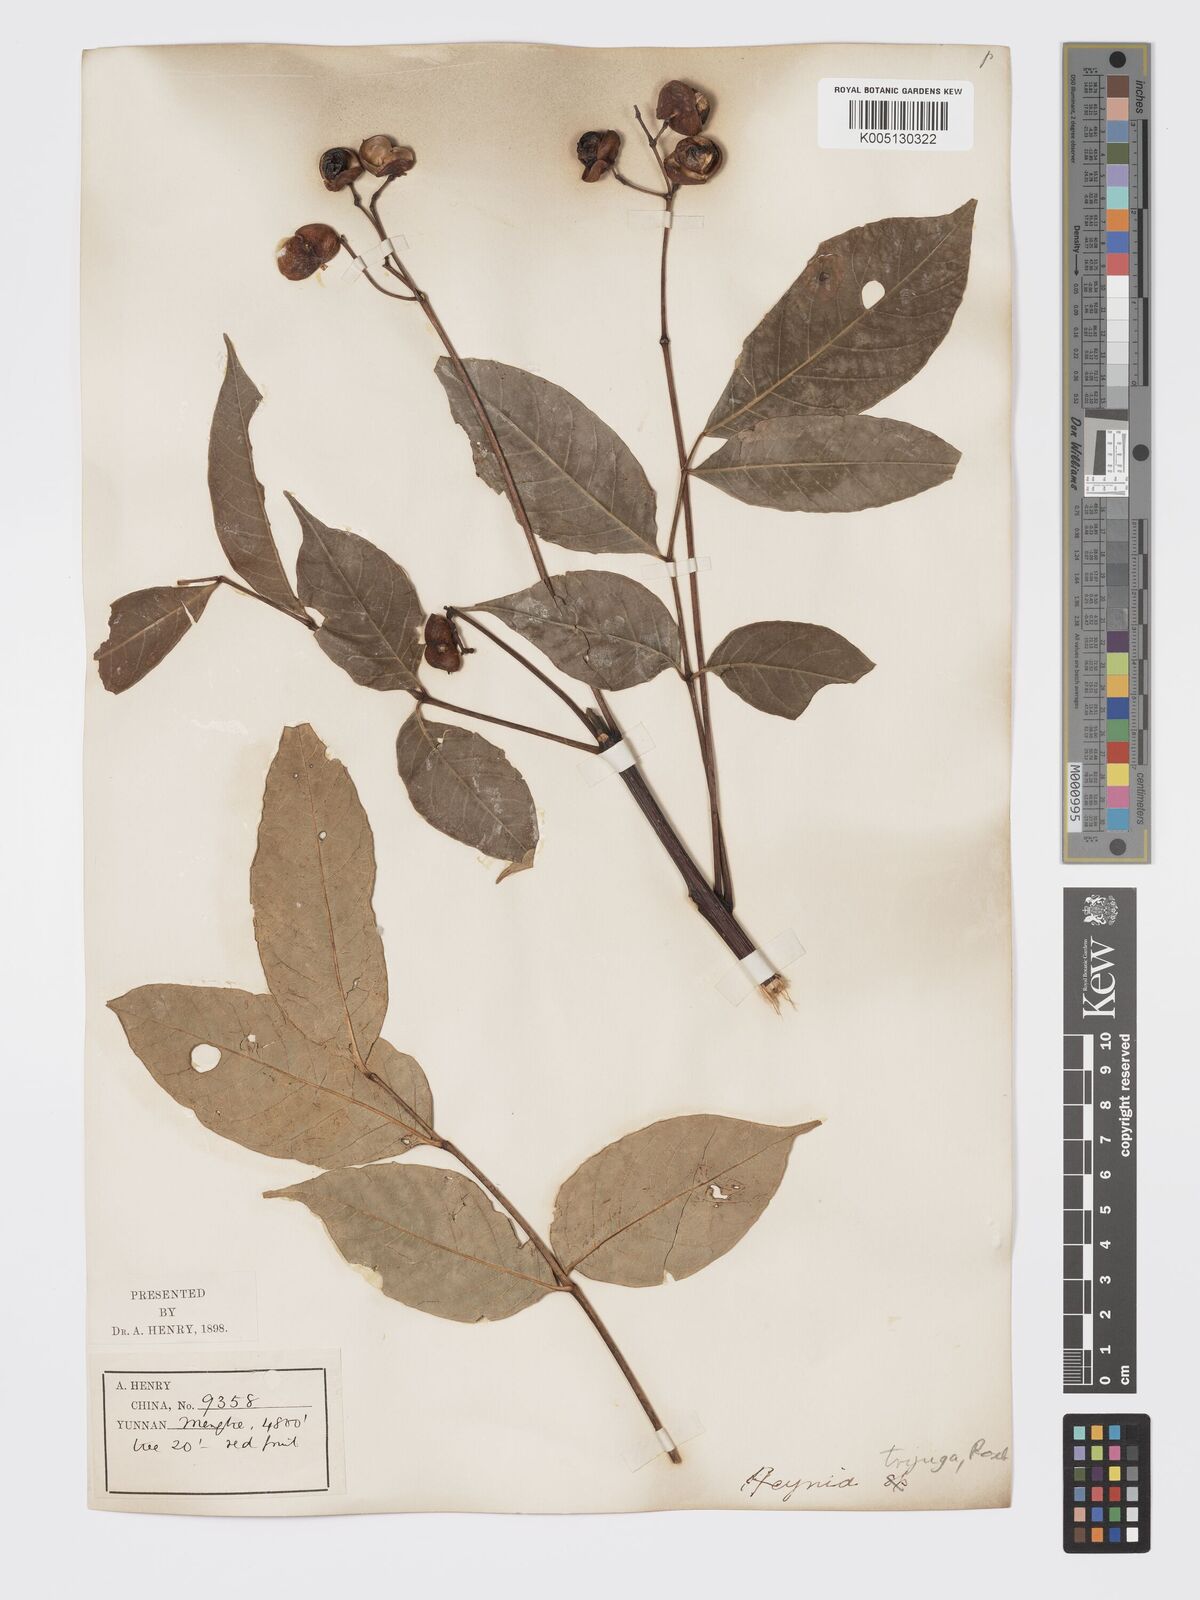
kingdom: Plantae
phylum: Tracheophyta
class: Magnoliopsida
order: Sapindales
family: Meliaceae
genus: Heynea
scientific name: Heynea trijuga
